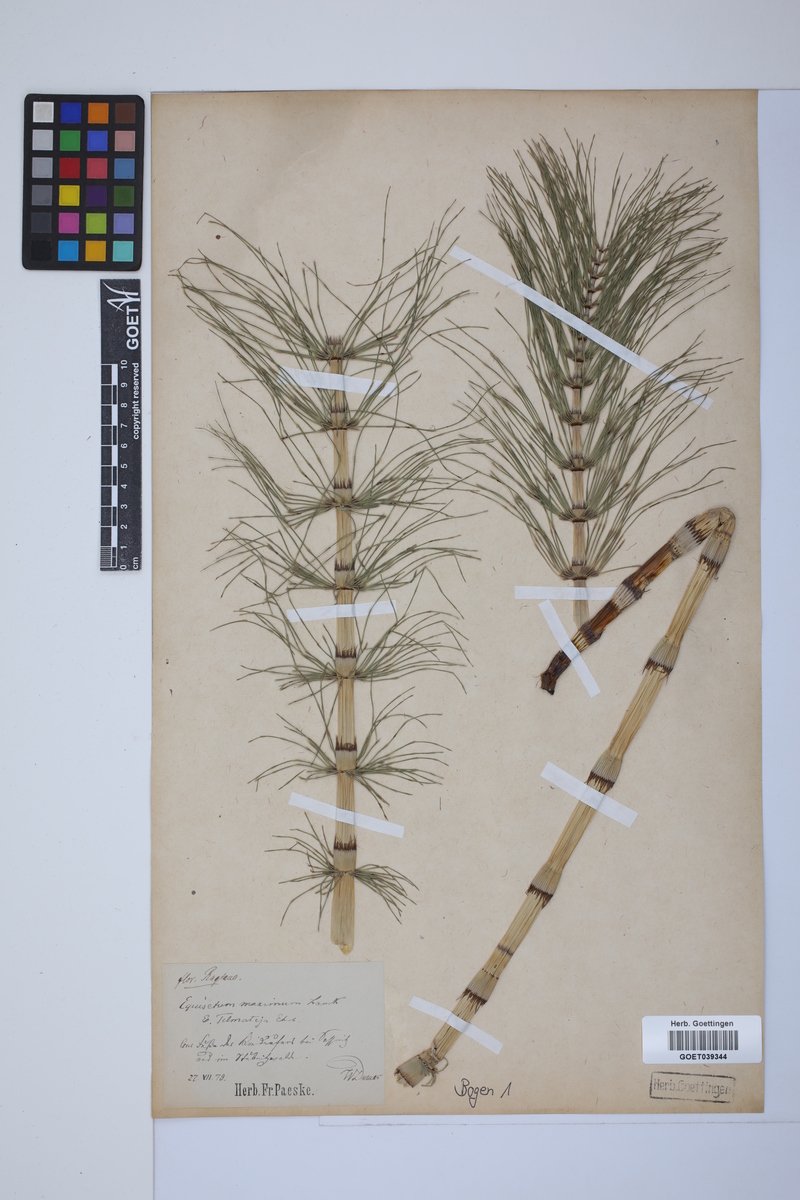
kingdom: Plantae
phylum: Tracheophyta
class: Polypodiopsida
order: Equisetales
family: Equisetaceae
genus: Equisetum
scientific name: Equisetum telmateia
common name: Great horsetail
